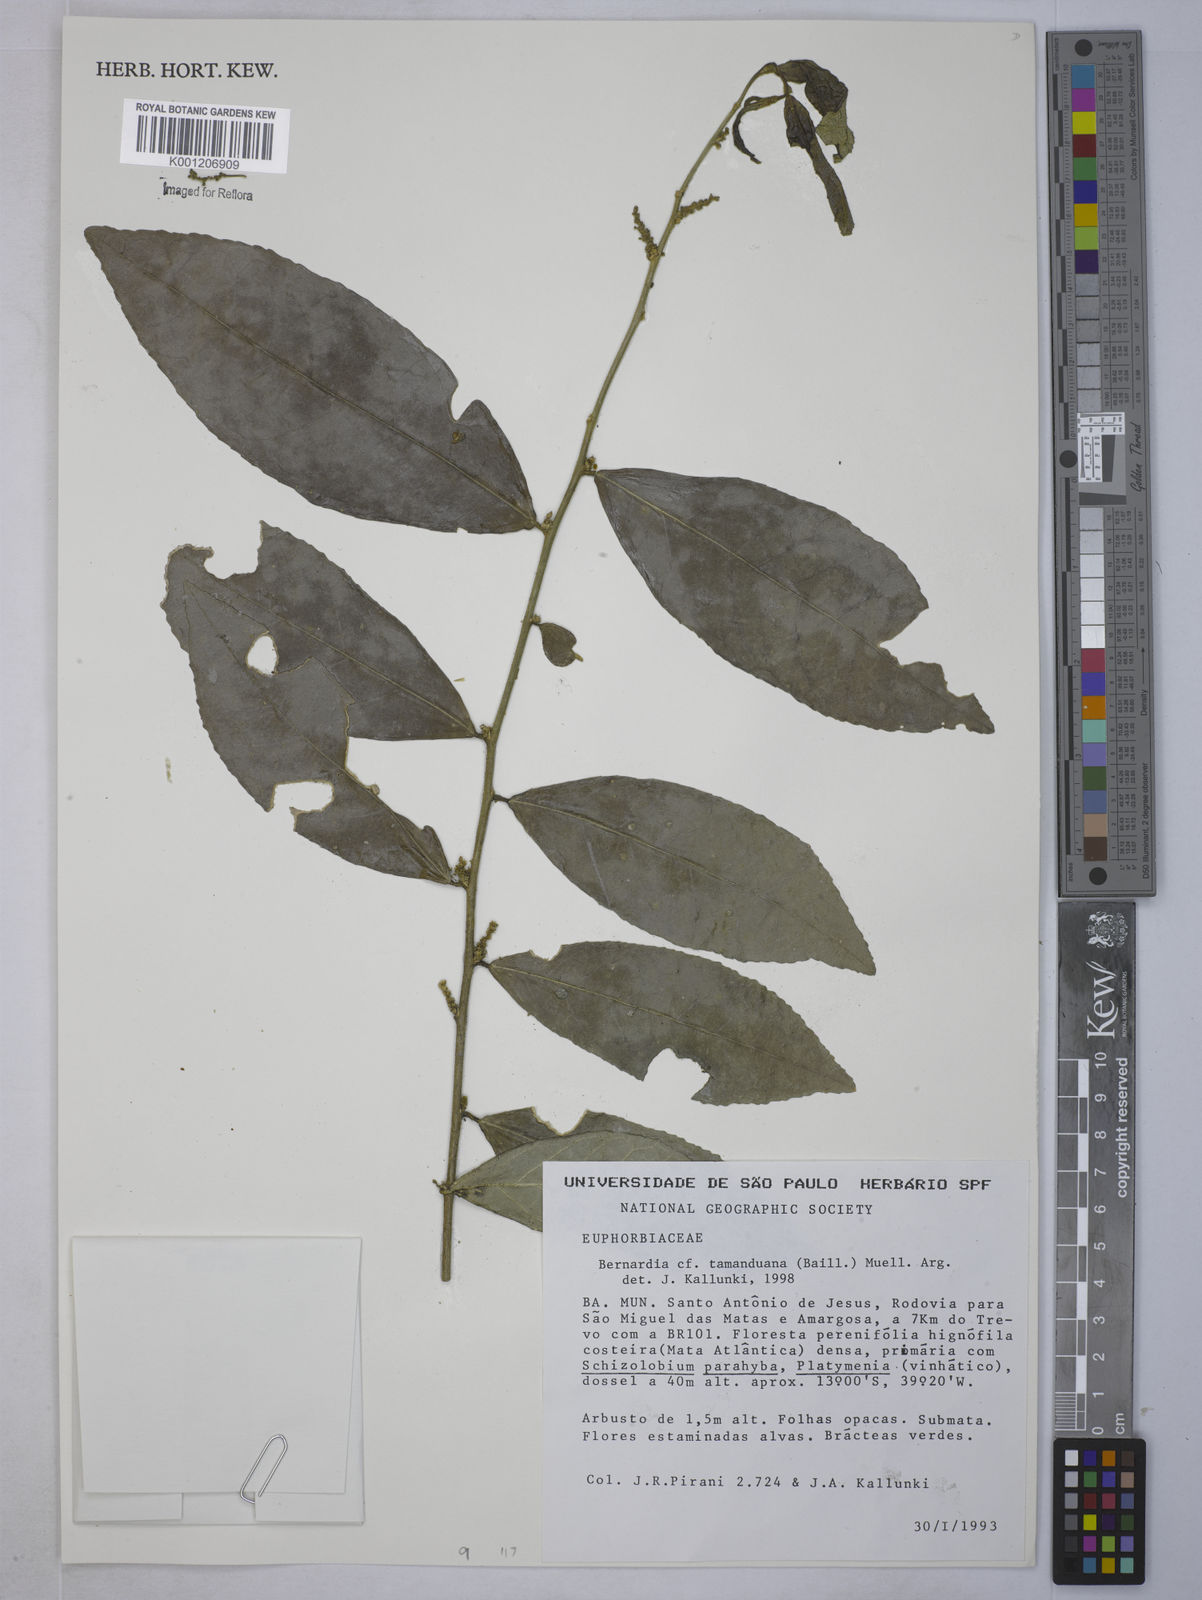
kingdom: Plantae
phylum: Tracheophyta
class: Magnoliopsida
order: Malpighiales
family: Euphorbiaceae
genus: Bernardia
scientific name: Bernardia
